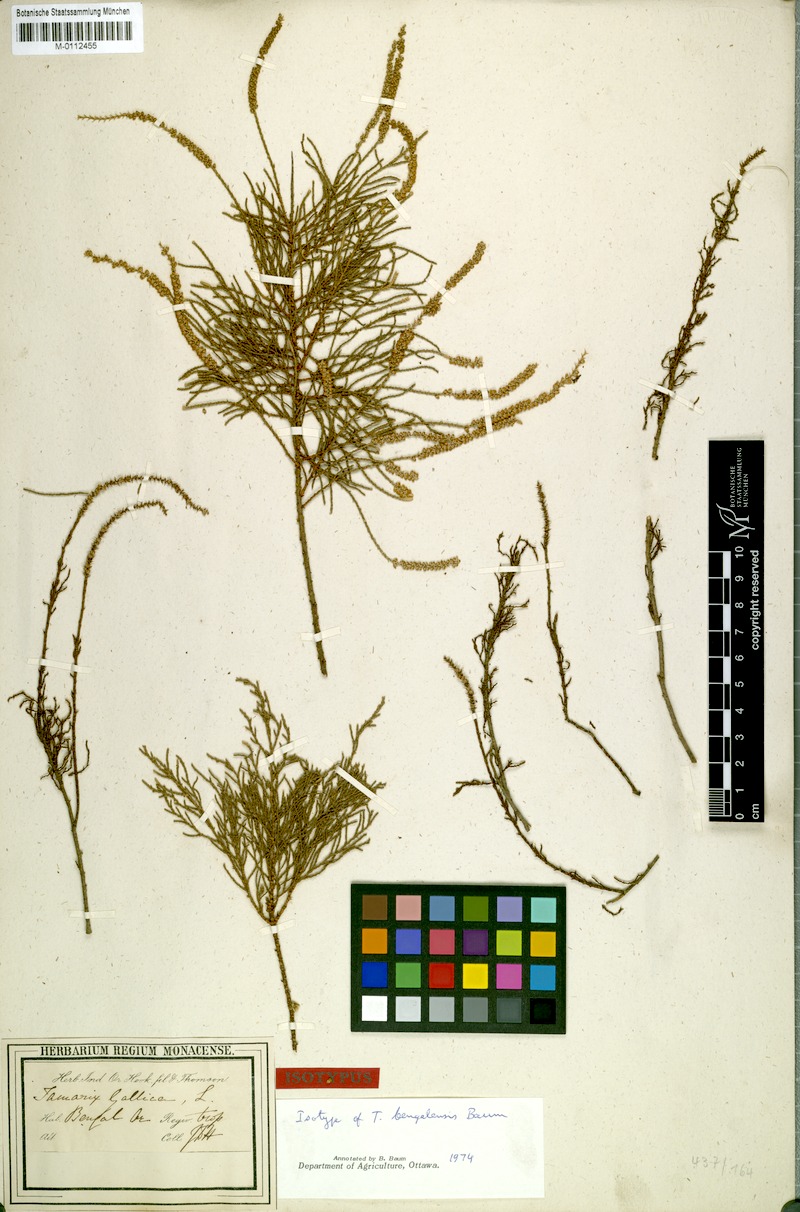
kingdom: Plantae
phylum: Tracheophyta
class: Magnoliopsida
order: Caryophyllales
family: Tamaricaceae
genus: Tamarix
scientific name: Tamarix indica
